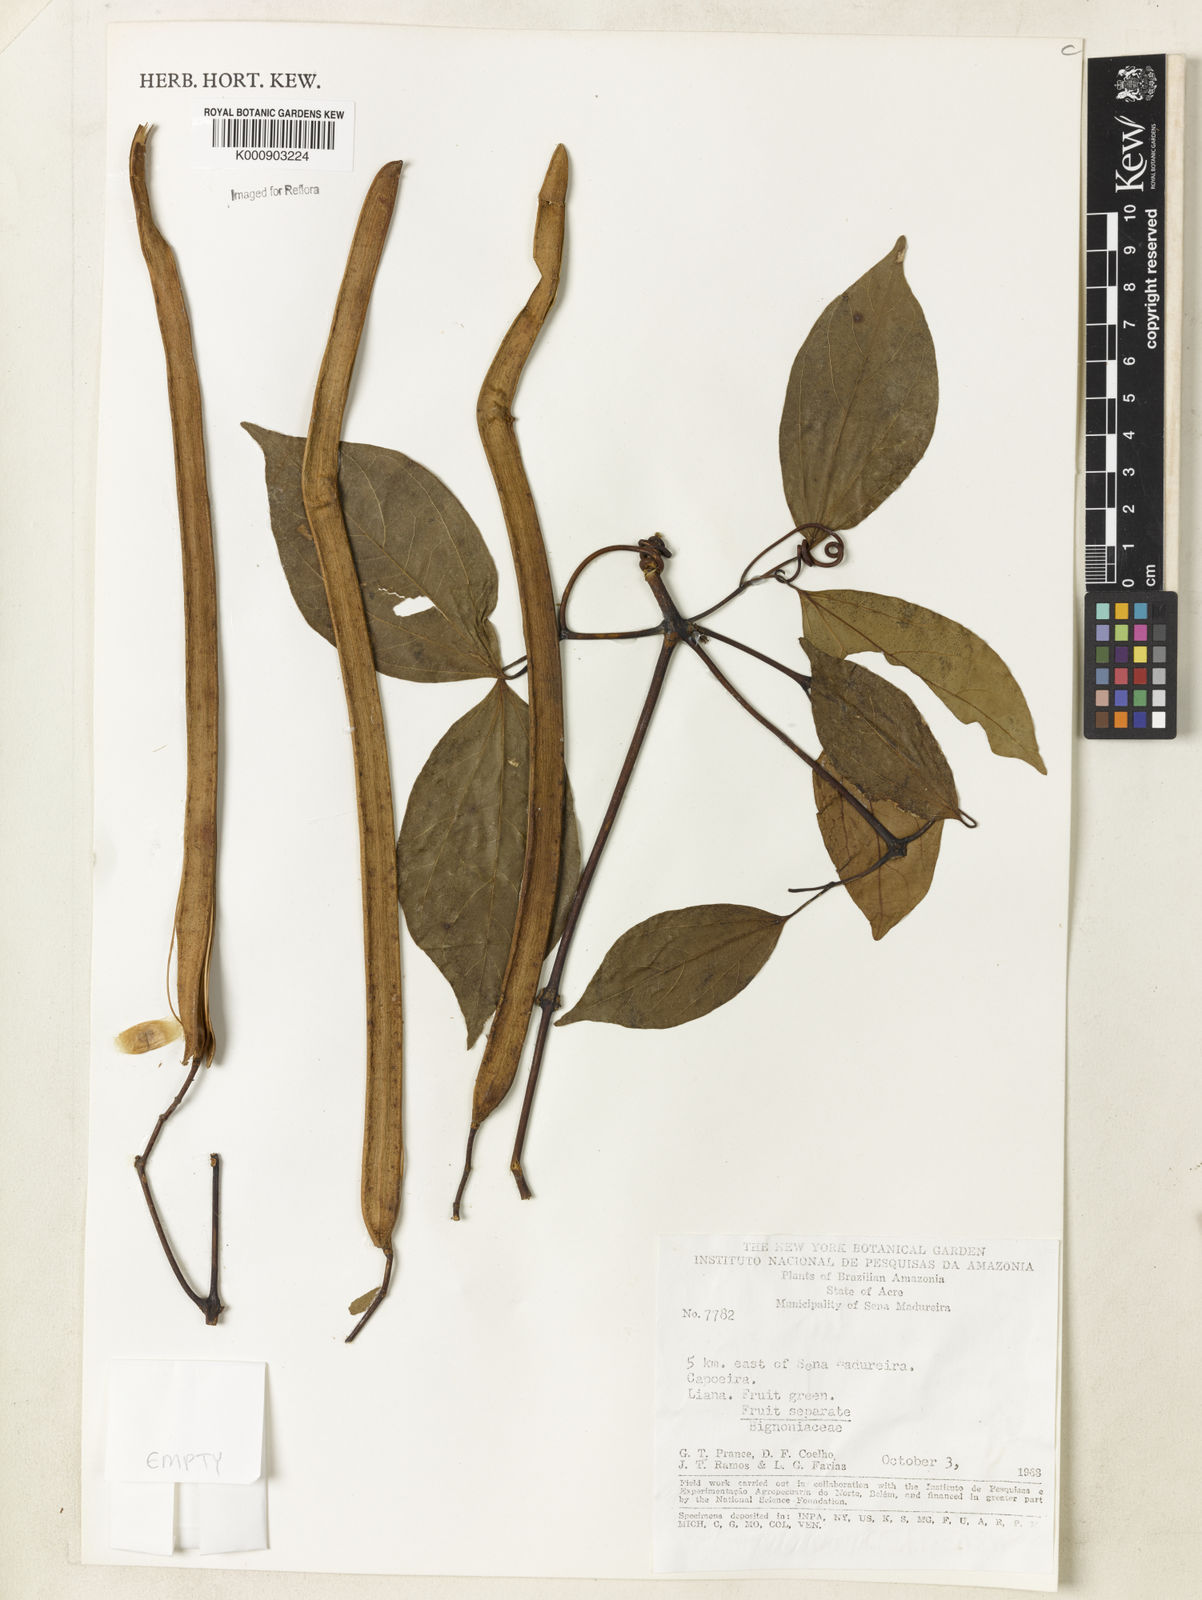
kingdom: Plantae
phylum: Tracheophyta
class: Magnoliopsida
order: Lamiales
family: Bignoniaceae
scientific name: Bignoniaceae
